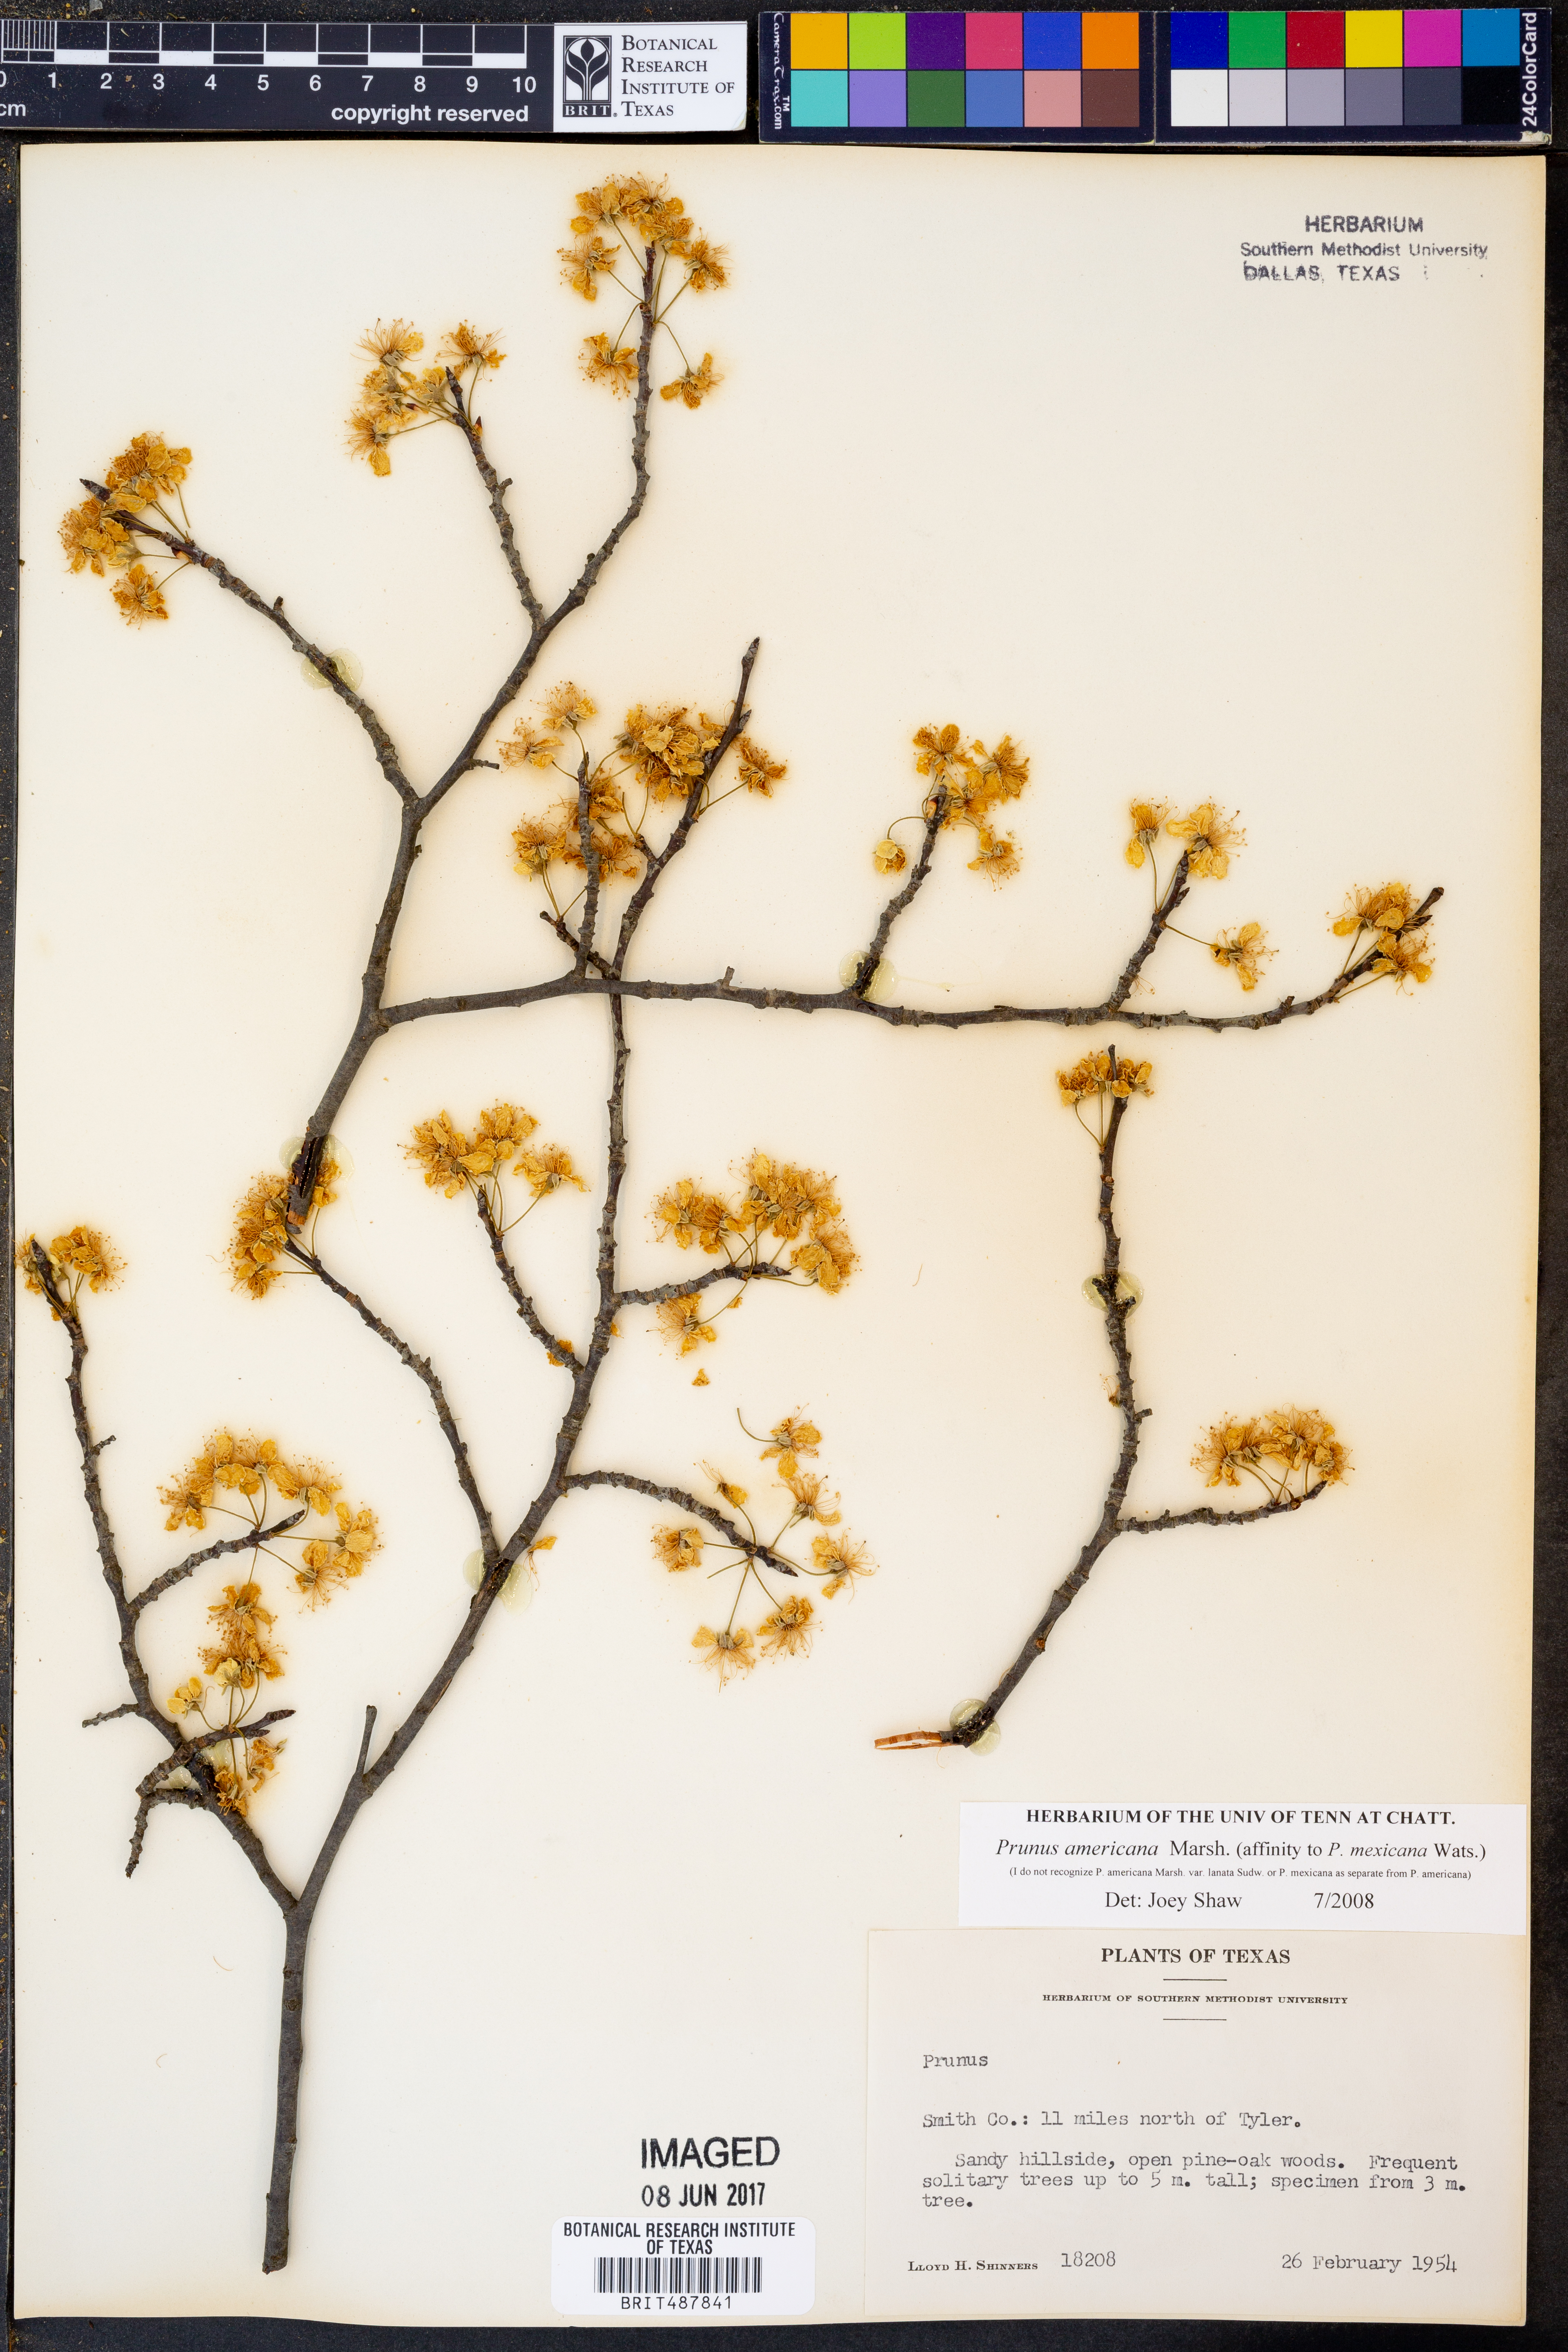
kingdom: Plantae
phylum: Tracheophyta
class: Magnoliopsida
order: Rosales
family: Rosaceae
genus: Prunus
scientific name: Prunus americana
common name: American plum
